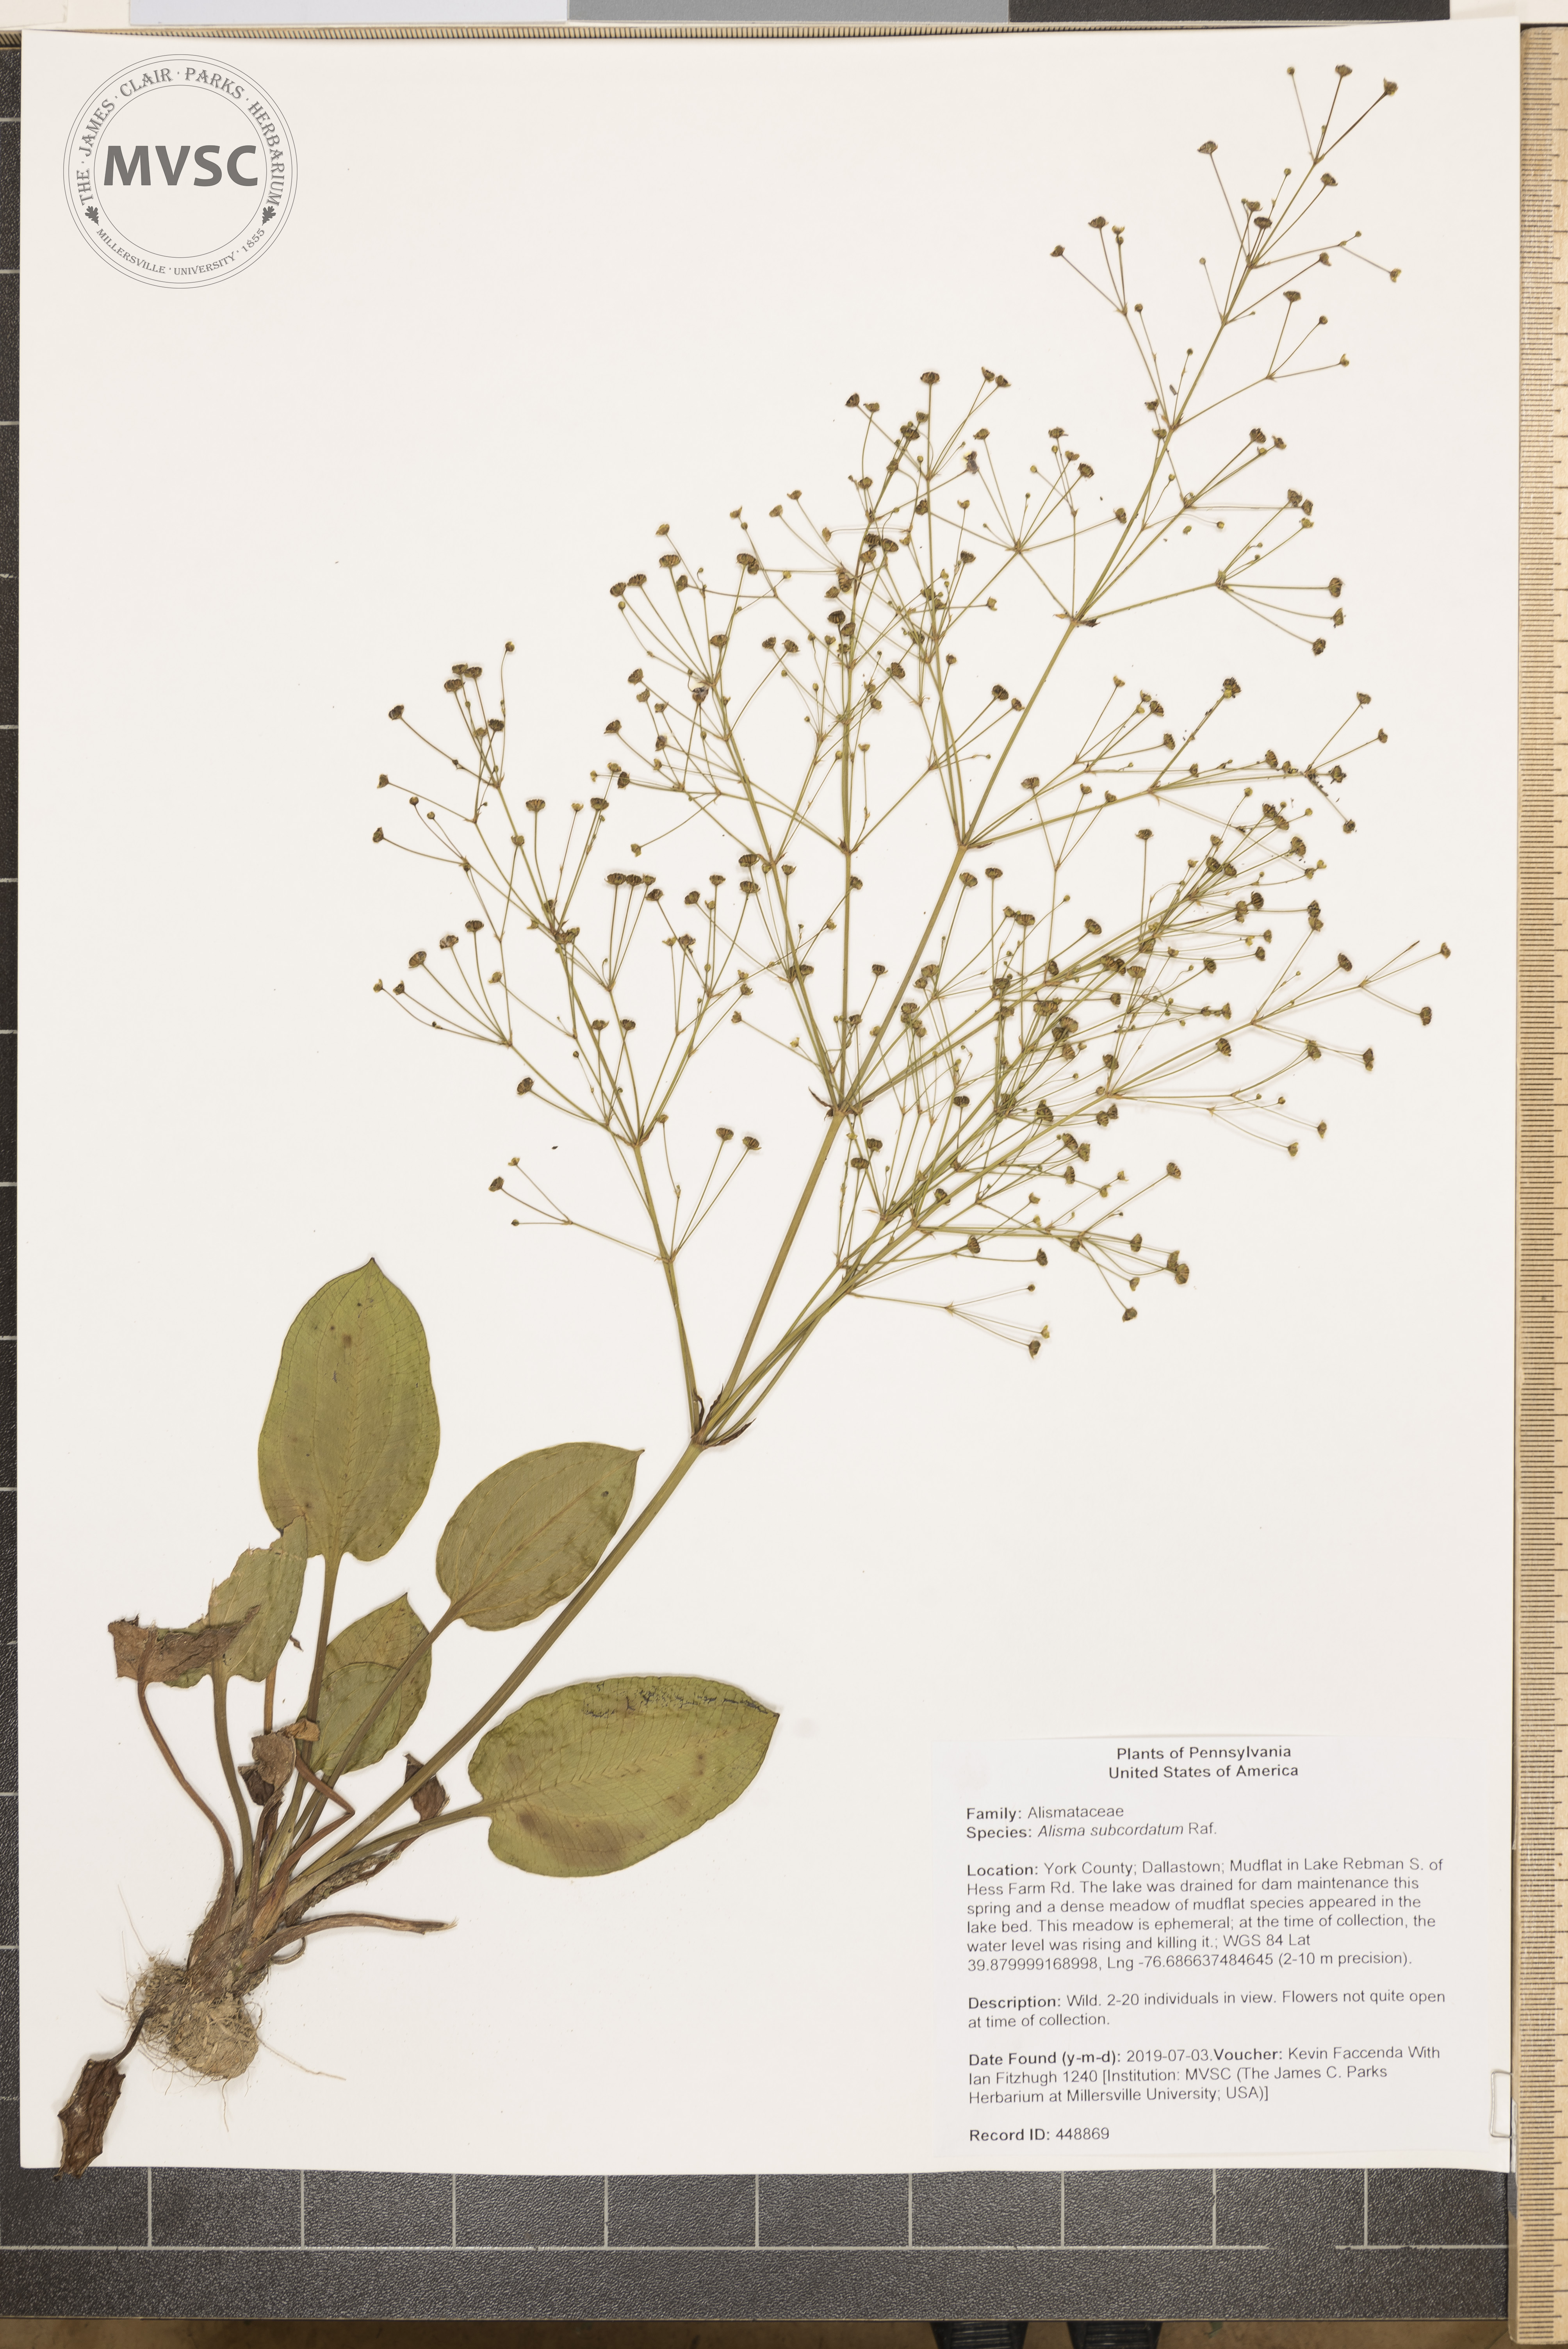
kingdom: Plantae
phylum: Tracheophyta
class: Liliopsida
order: Alismatales
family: Alismataceae
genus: Alisma
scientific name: Alisma subcordatum
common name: Southern water-plantain
